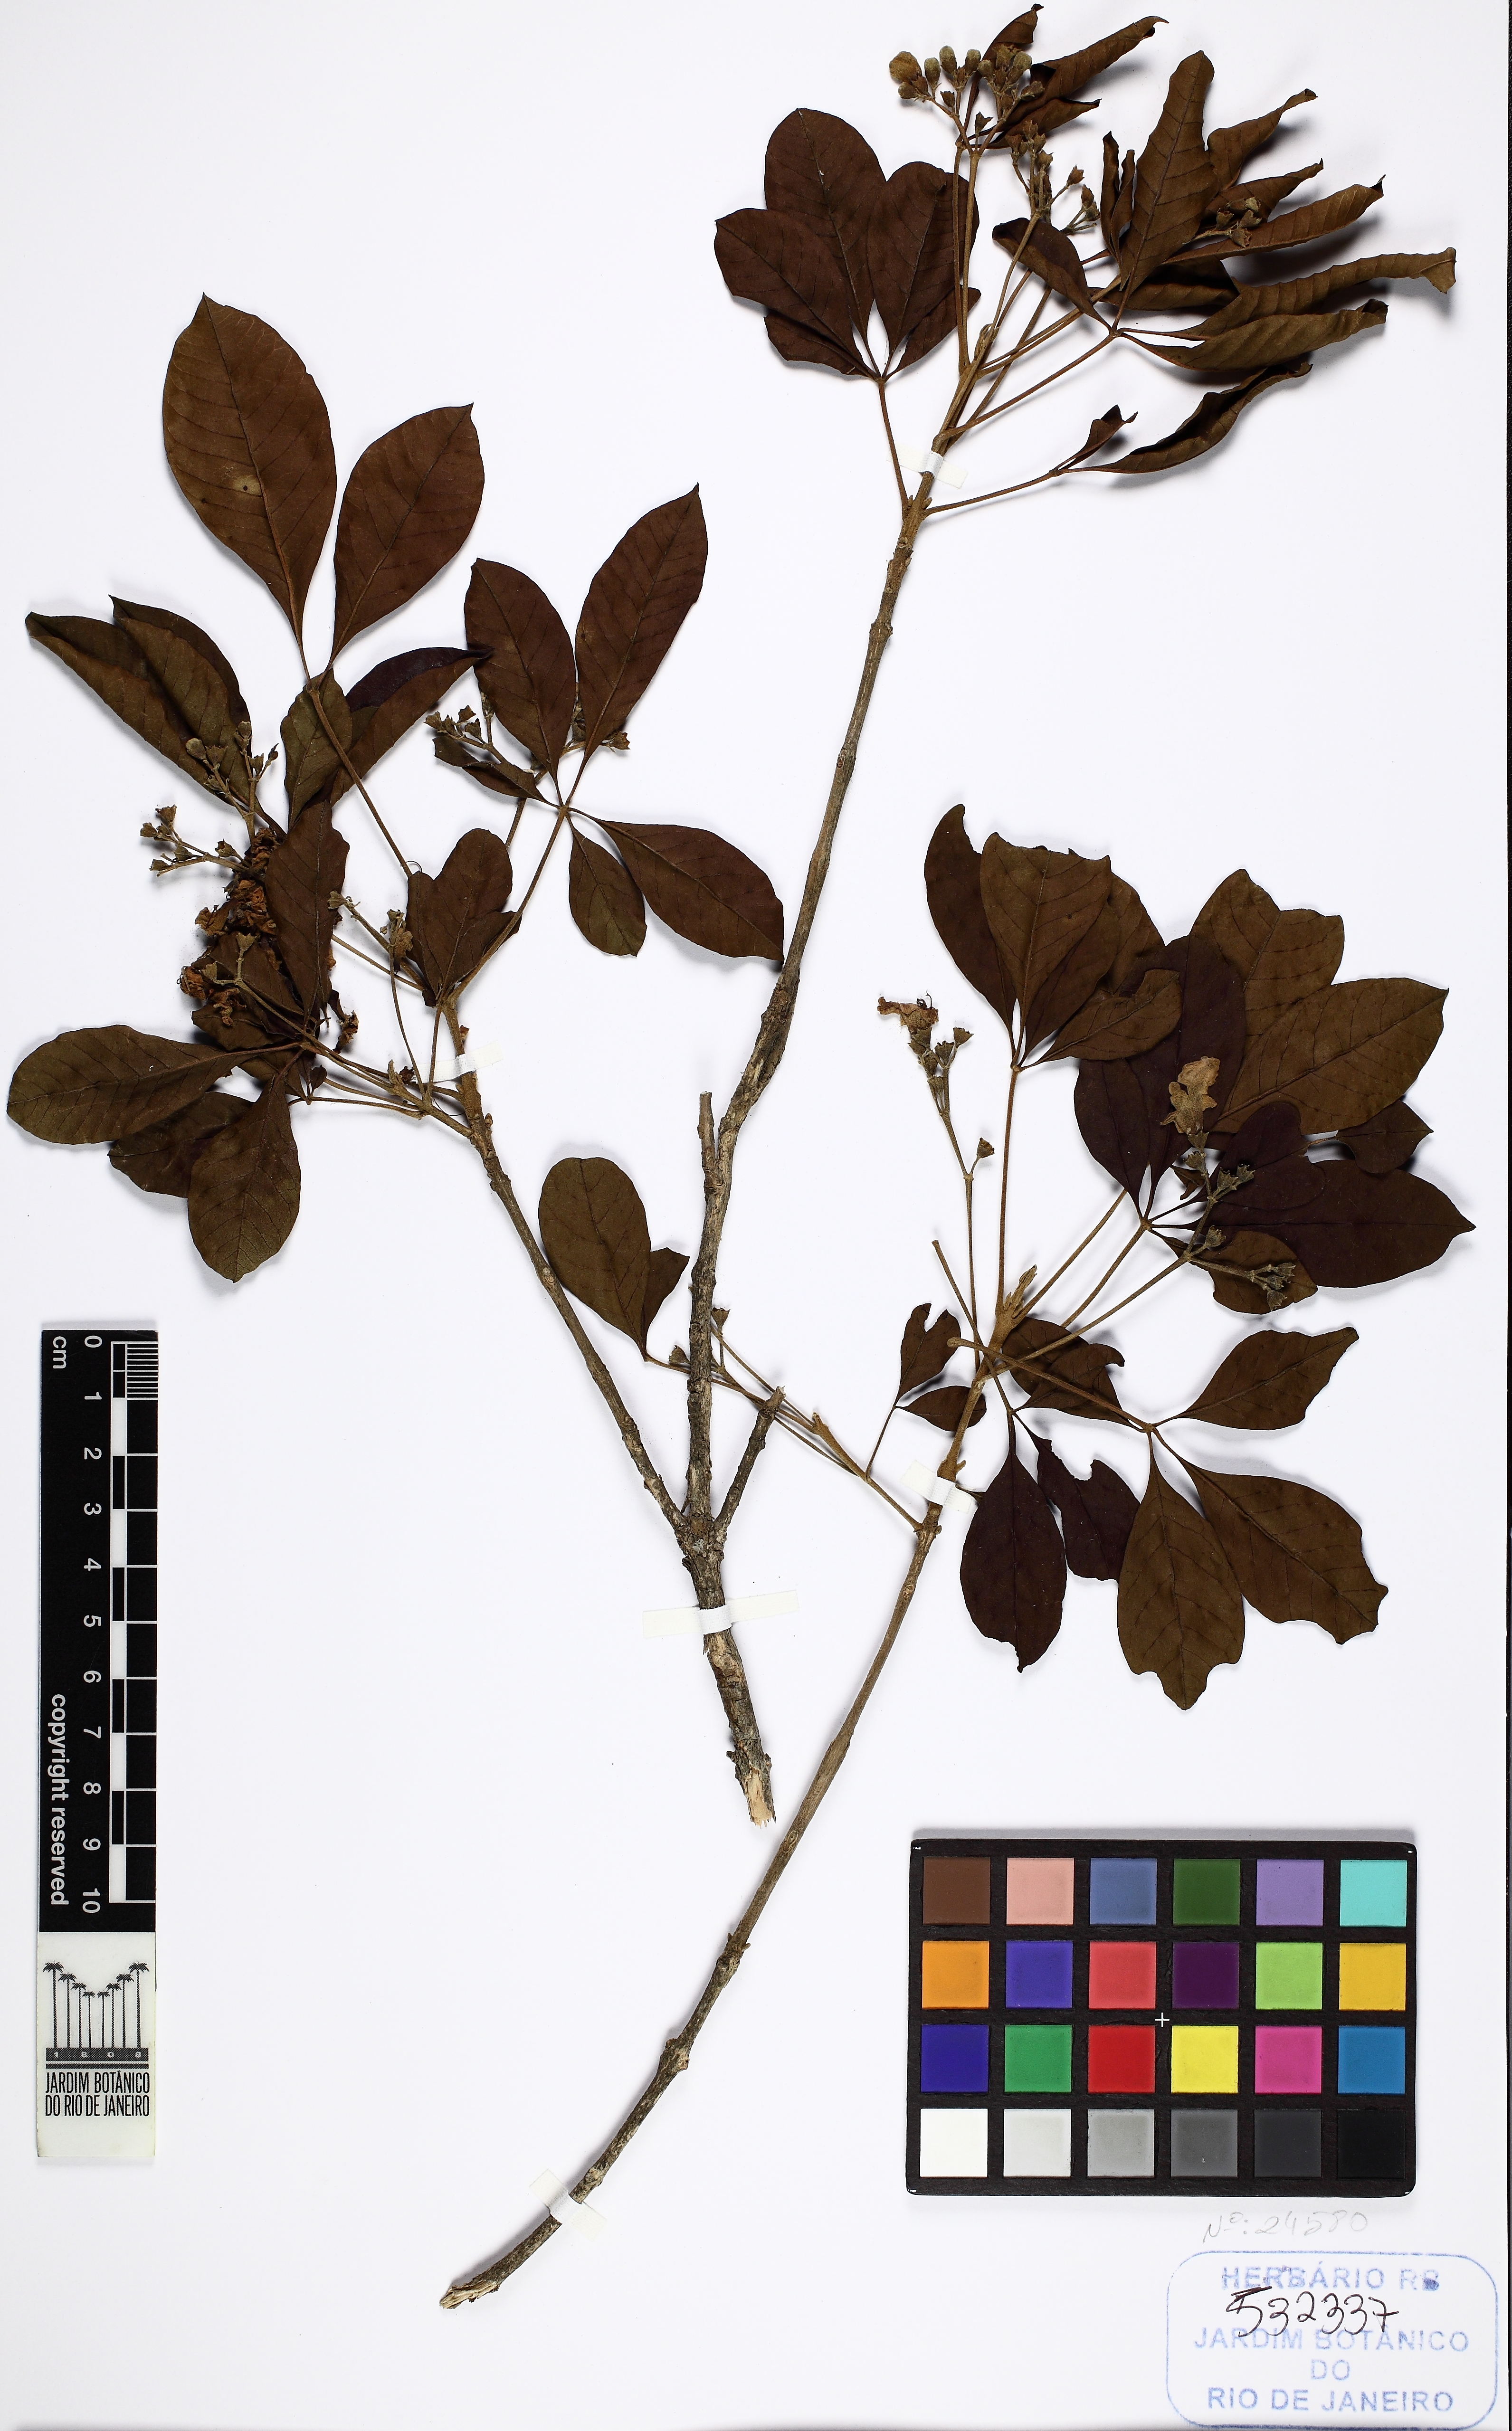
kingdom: Plantae
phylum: Tracheophyta
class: Magnoliopsida
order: Lamiales
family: Lamiaceae
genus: Vitex
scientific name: Vitex megapotamica
